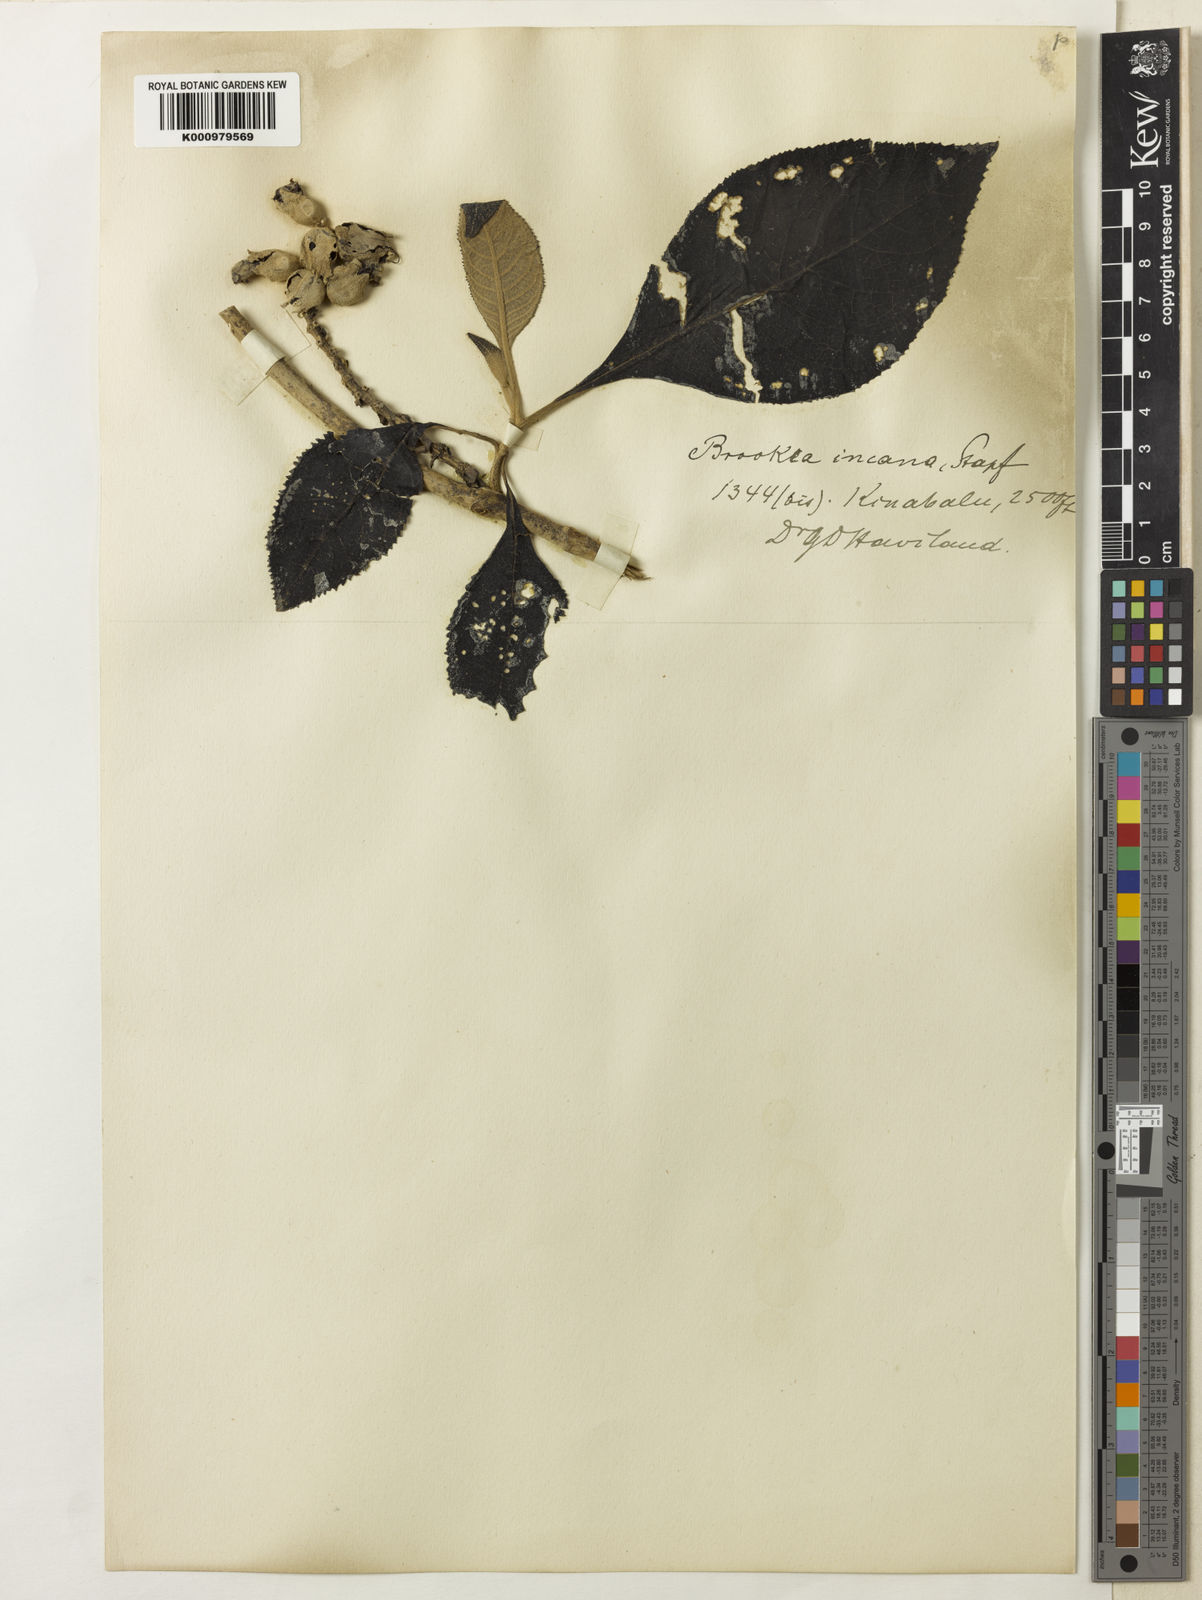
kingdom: Plantae
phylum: Tracheophyta
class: Magnoliopsida
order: Lamiales
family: Plantaginaceae
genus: Brookea
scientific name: Brookea albicans
